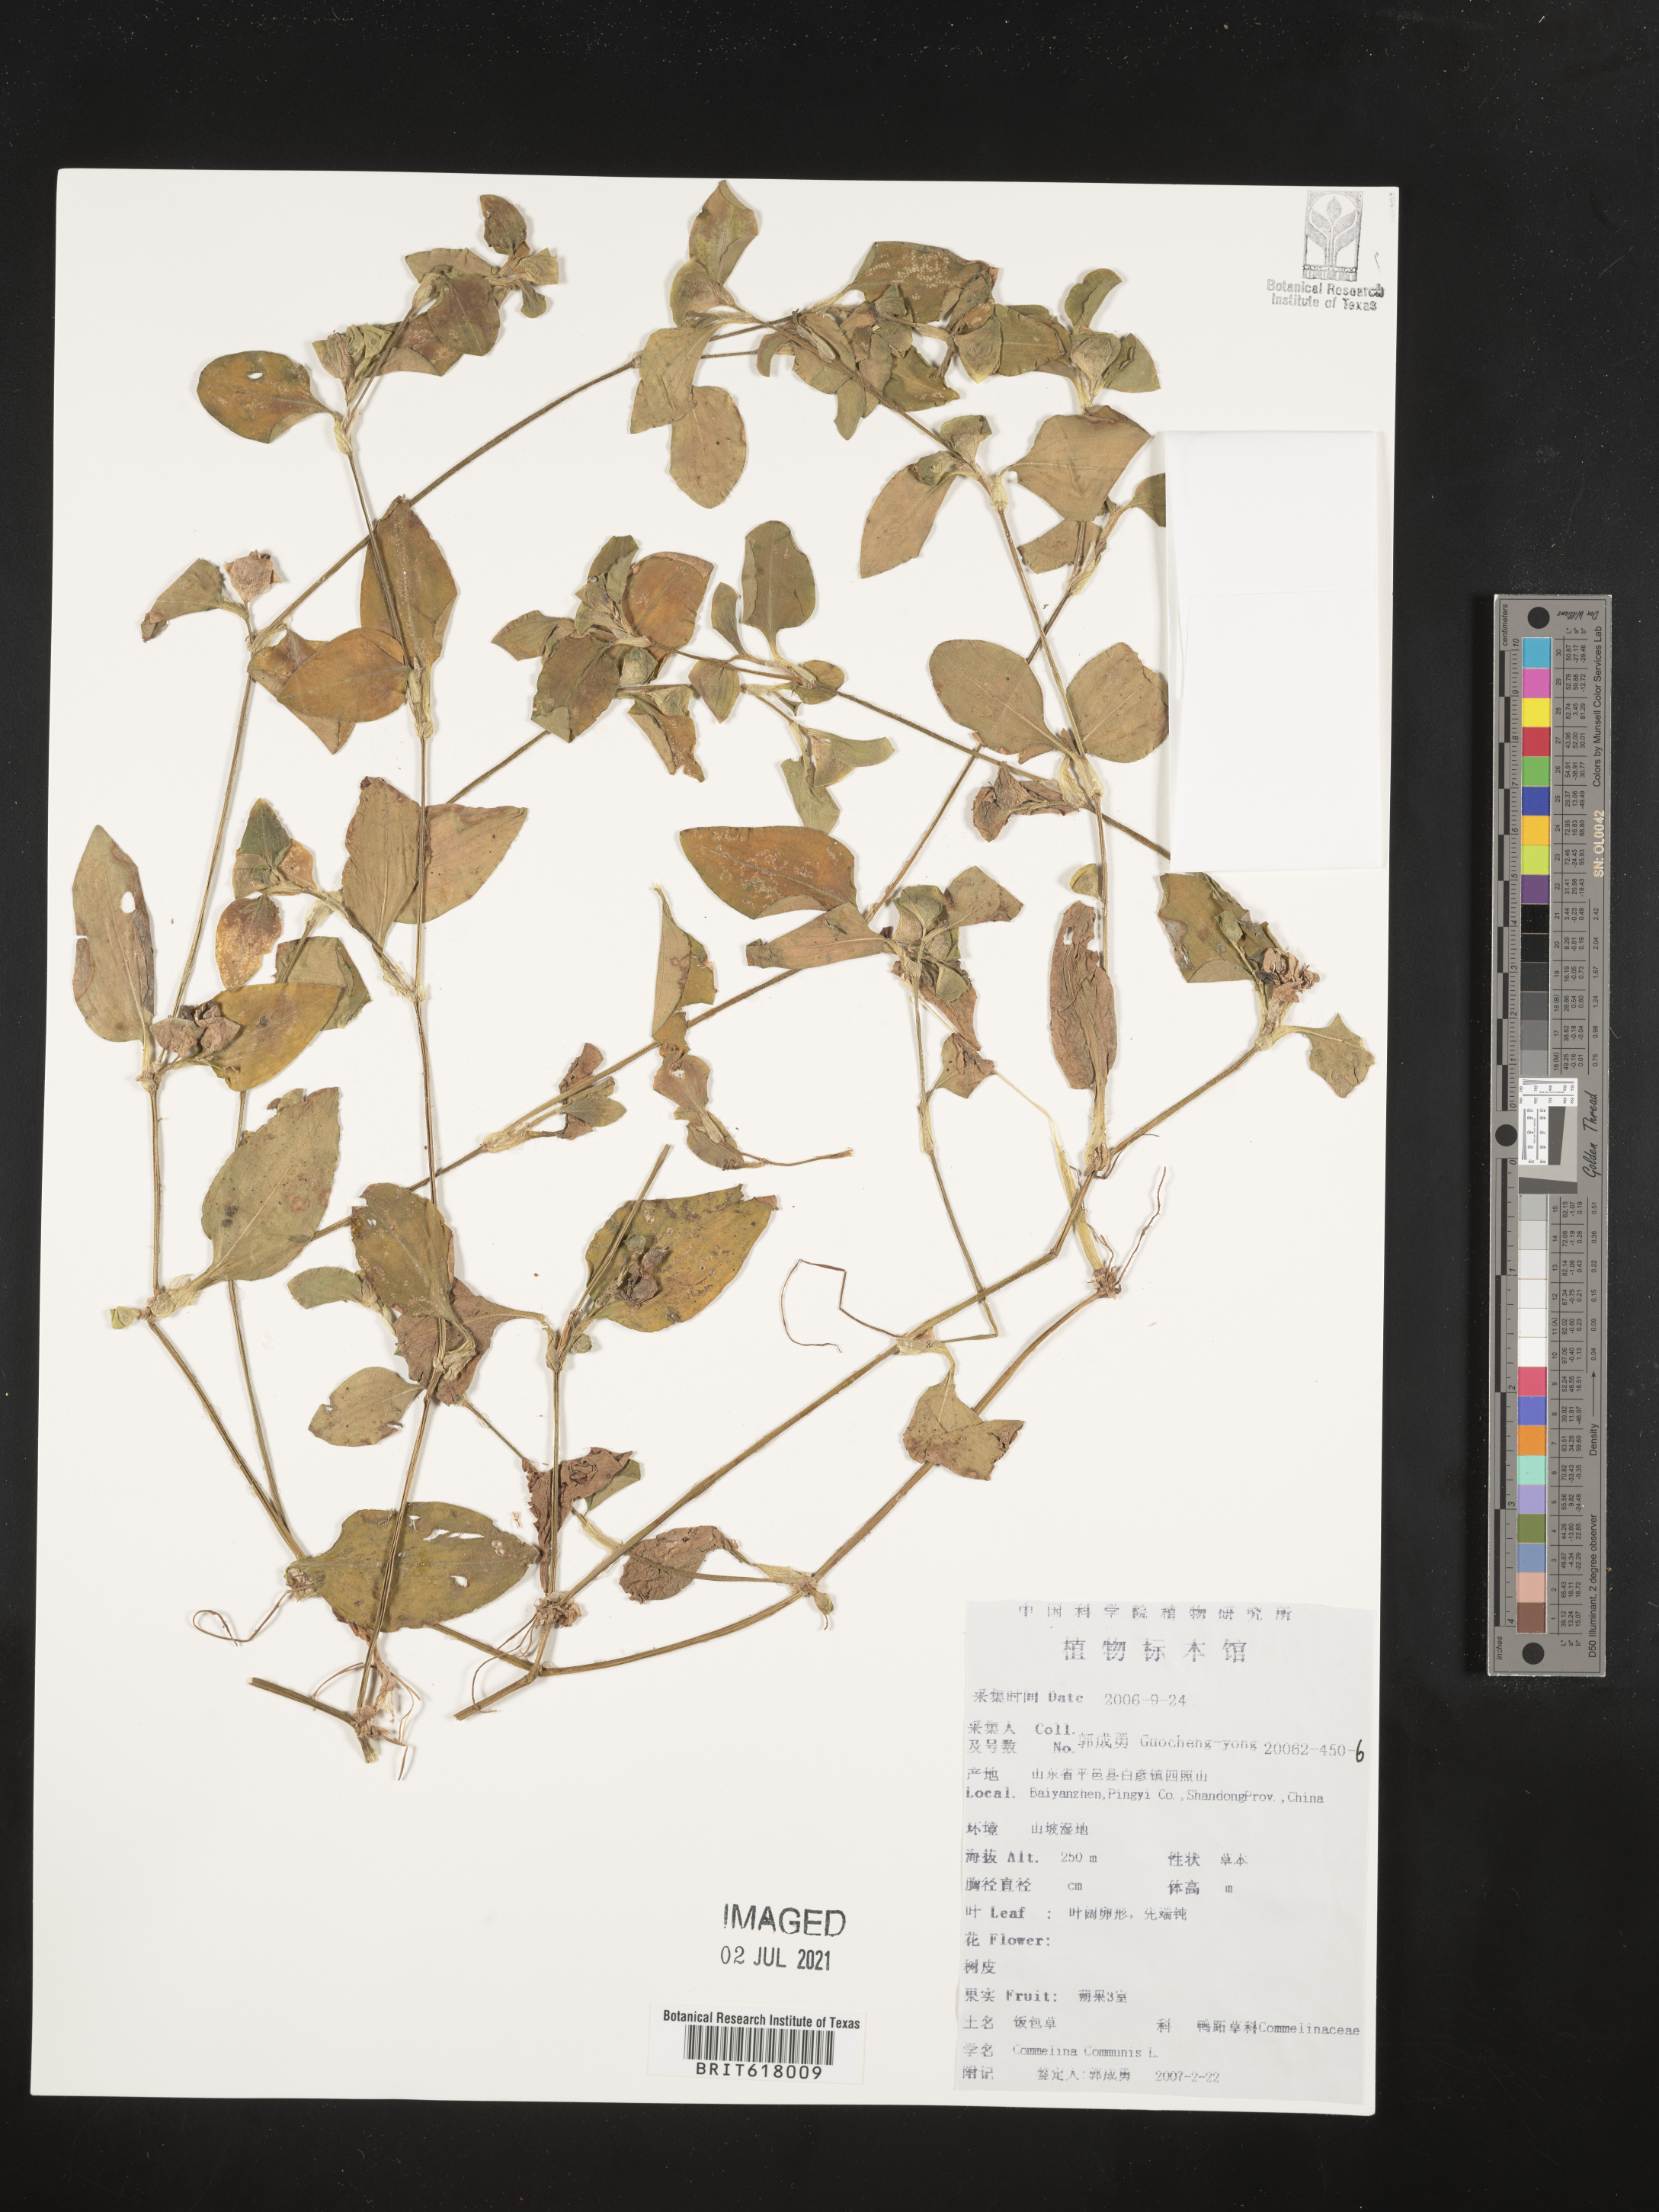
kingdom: Plantae
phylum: Tracheophyta
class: Liliopsida
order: Commelinales
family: Commelinaceae
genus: Commelina
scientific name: Commelina communis
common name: Asiatic dayflower
